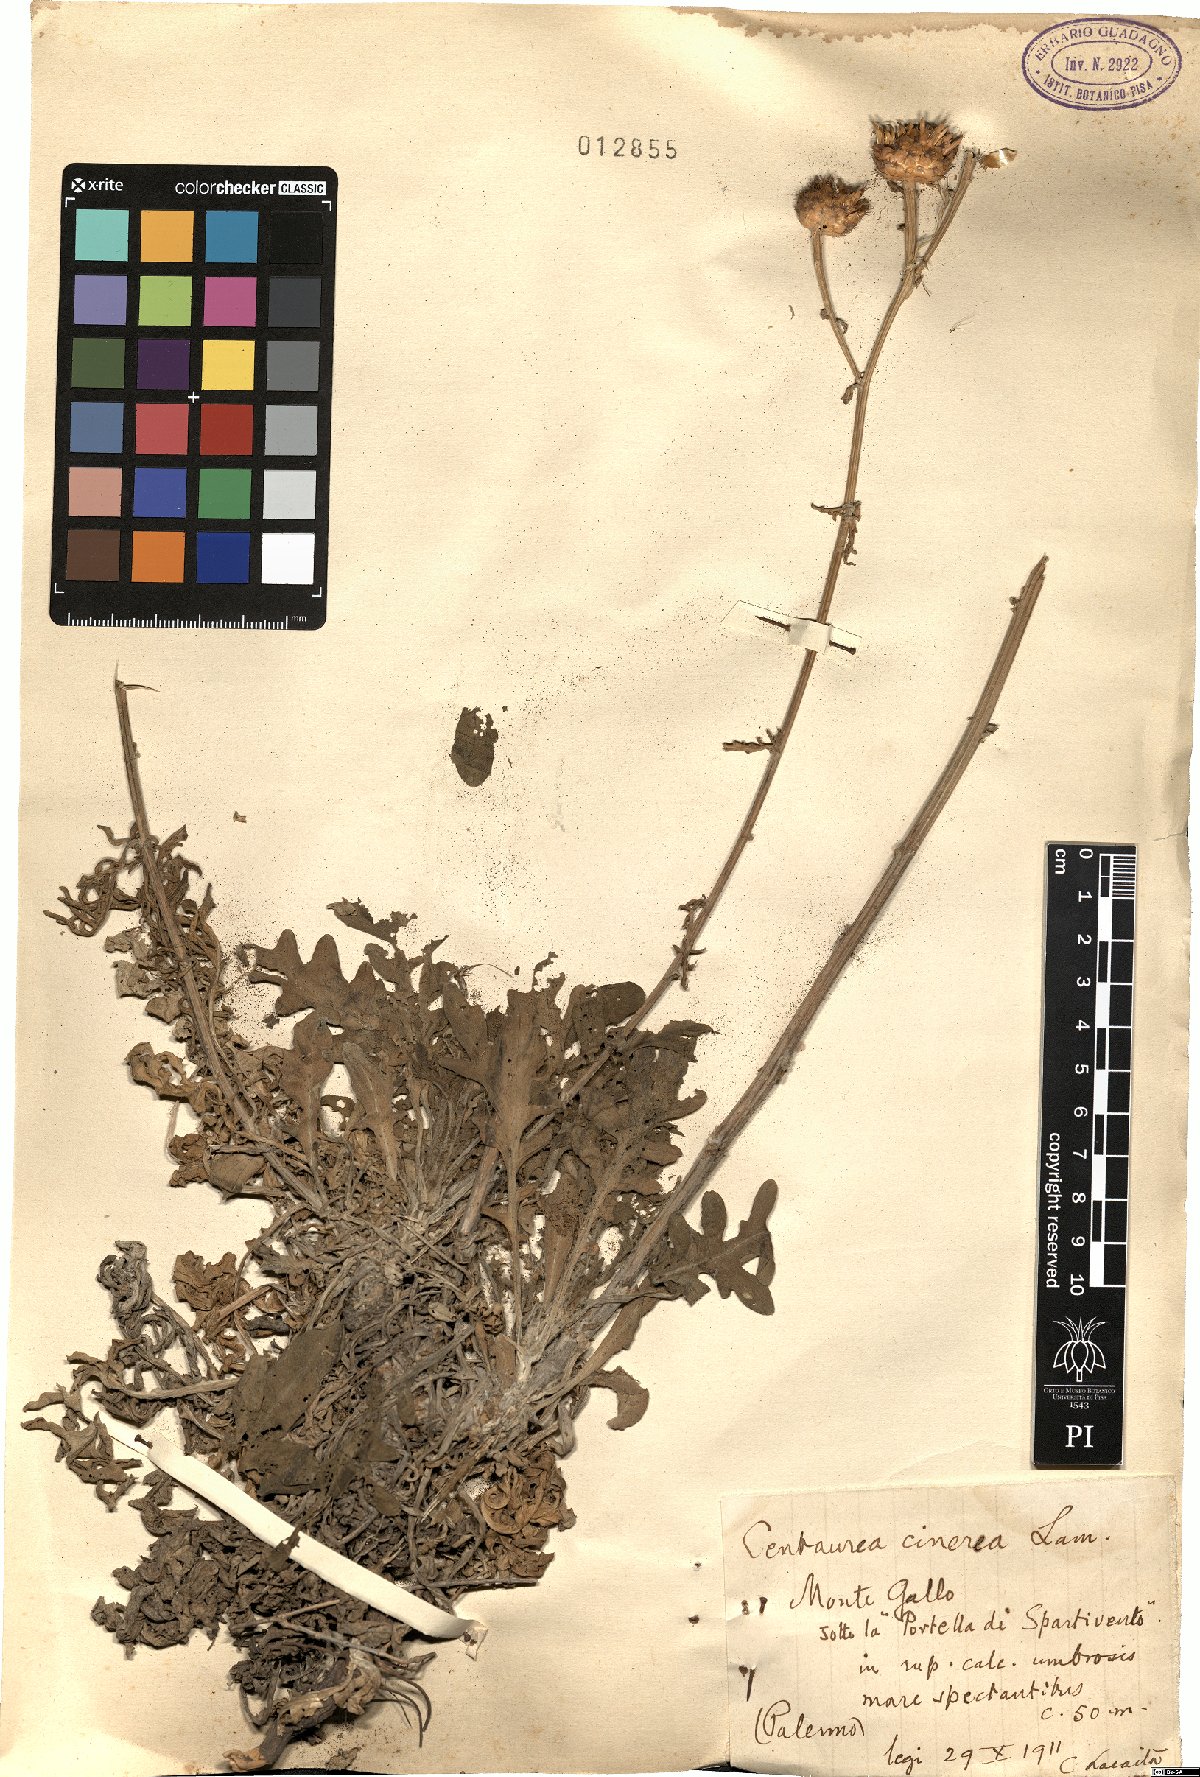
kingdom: Plantae
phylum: Tracheophyta
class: Magnoliopsida
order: Asterales
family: Asteraceae
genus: Centaurea
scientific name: Centaurea cineraria
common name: Dusty miller
